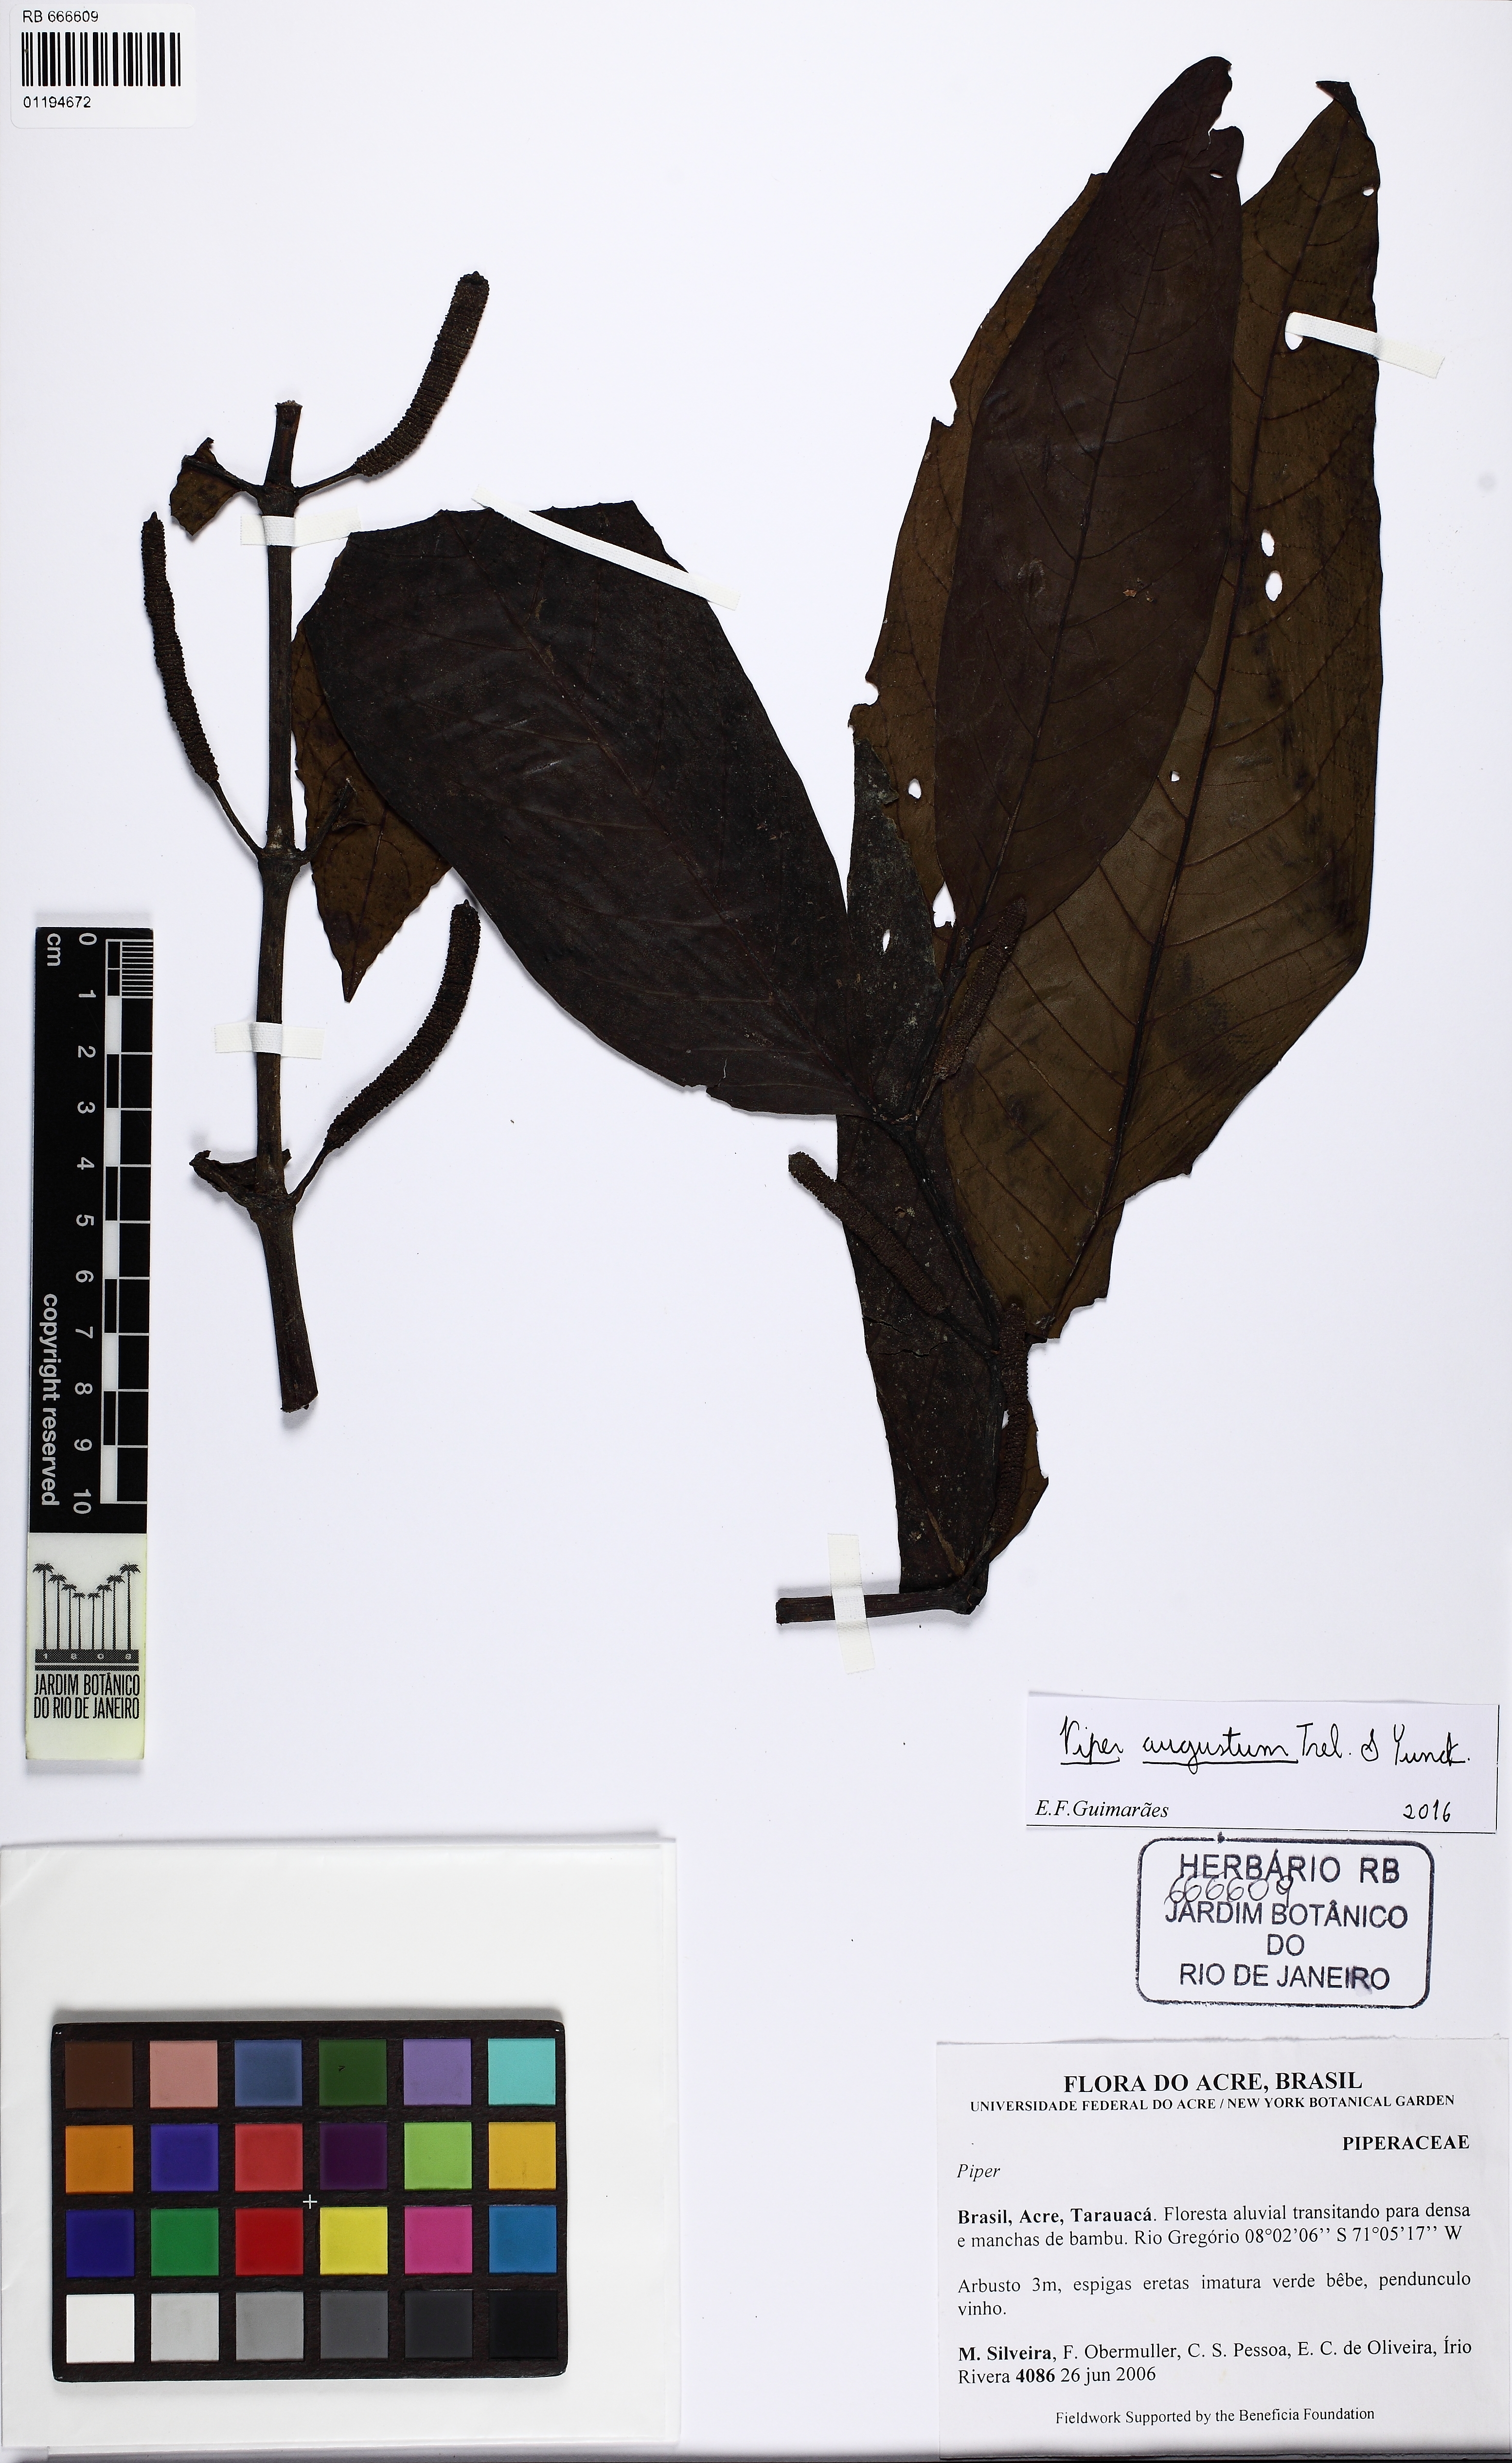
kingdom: Plantae
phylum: Tracheophyta
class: Magnoliopsida
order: Piperales
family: Piperaceae
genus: Piper
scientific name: Piper augustum
